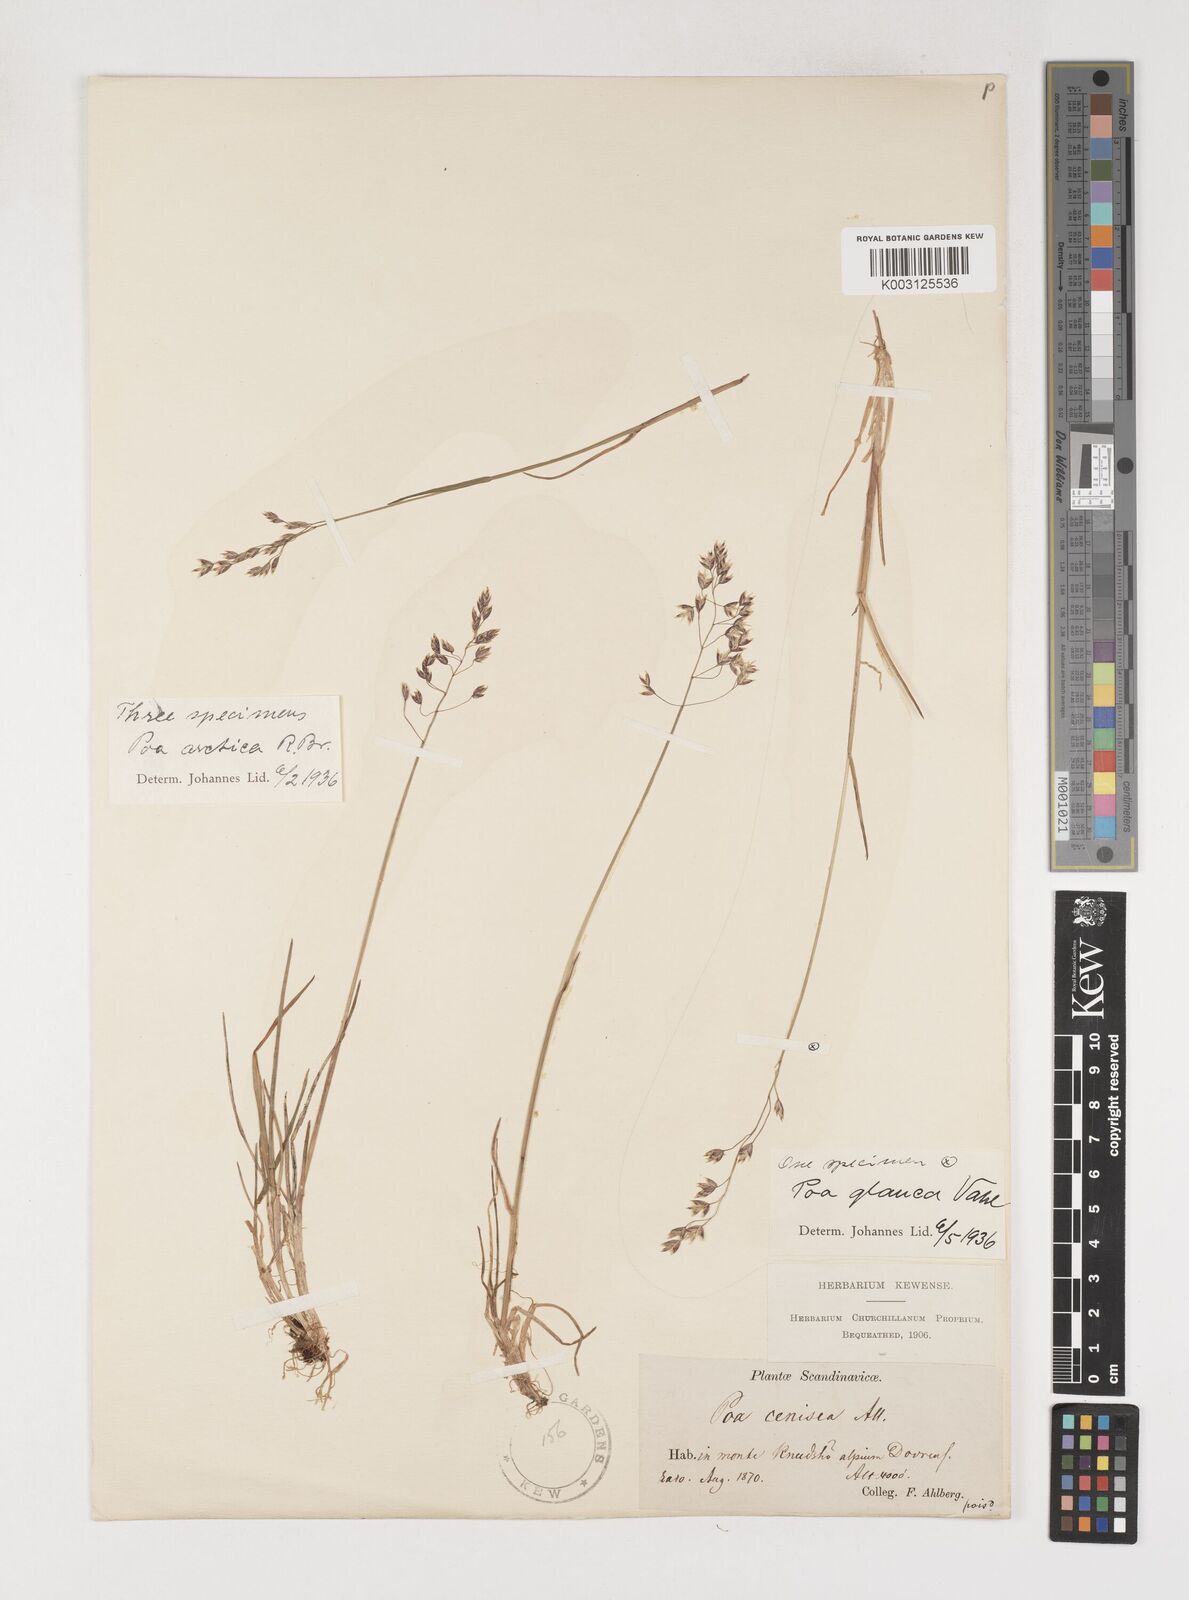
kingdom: Plantae
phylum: Tracheophyta
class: Liliopsida
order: Poales
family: Poaceae
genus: Poa
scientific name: Poa arctica
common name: Arctic bluegrass
